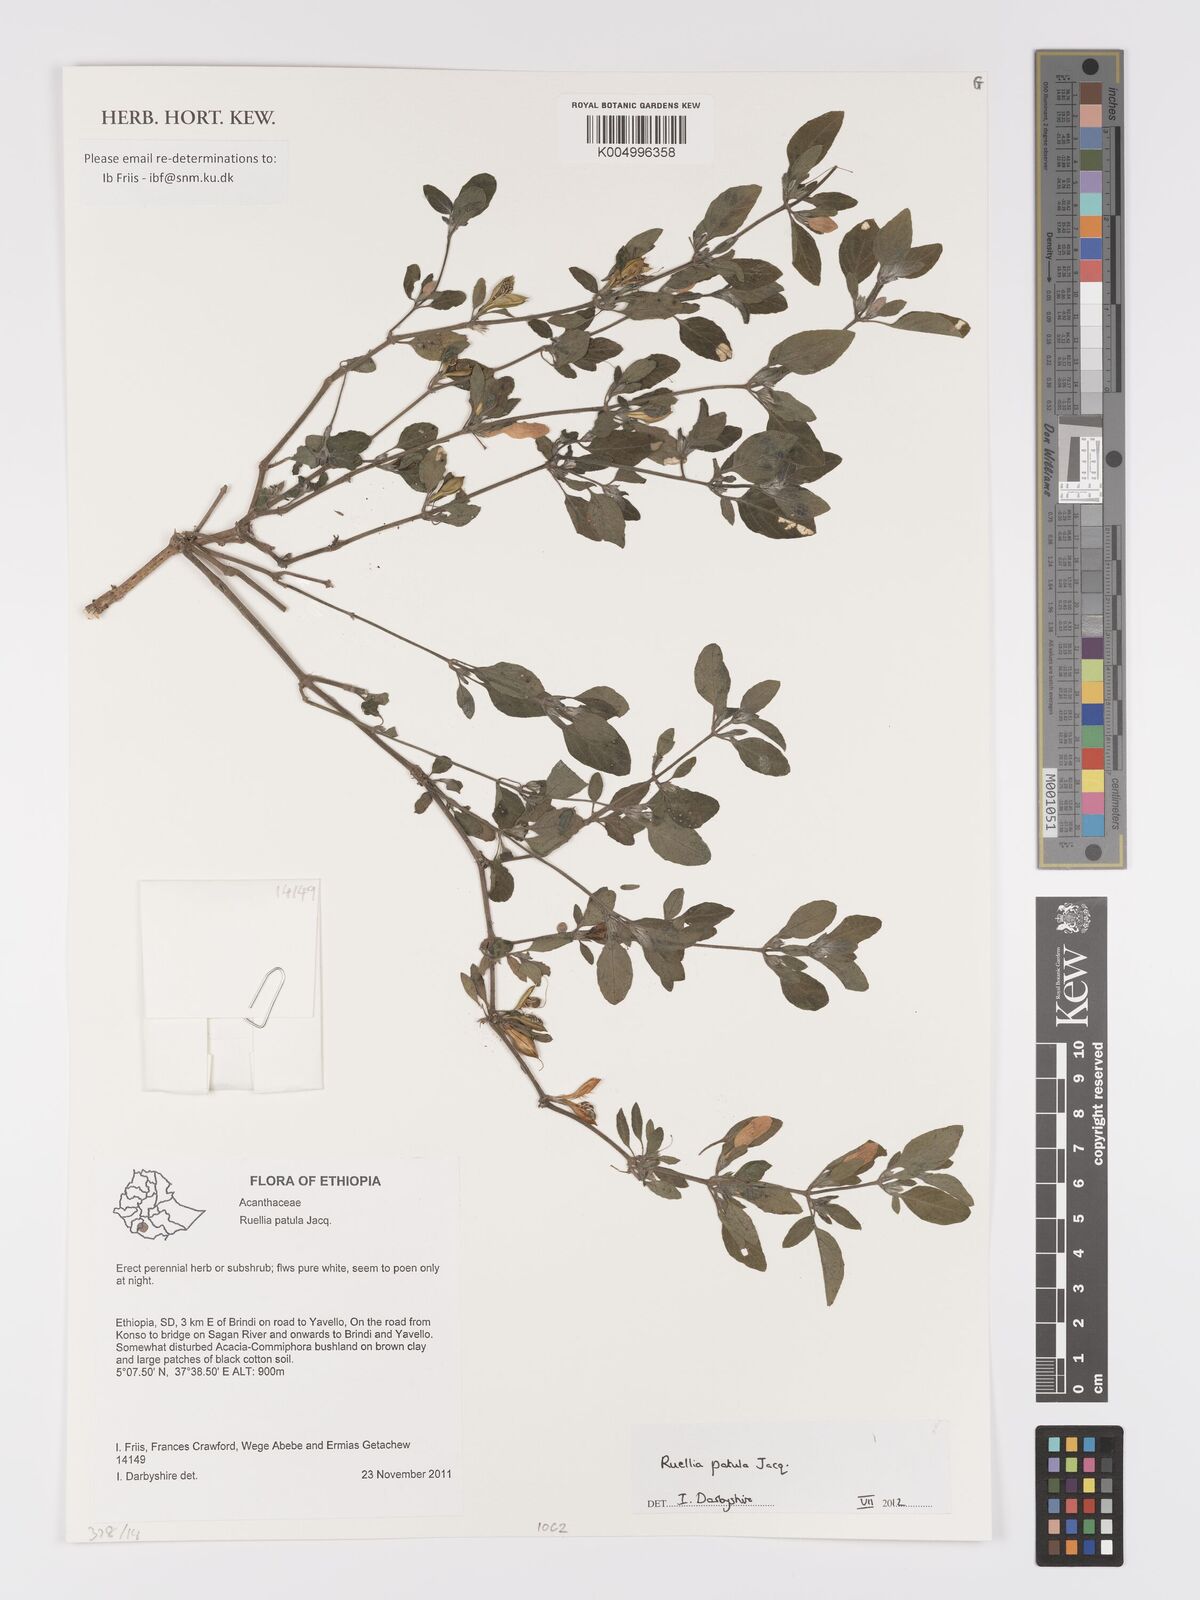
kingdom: Plantae
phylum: Tracheophyta
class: Magnoliopsida
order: Lamiales
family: Acanthaceae
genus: Ruellia
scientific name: Ruellia patula
